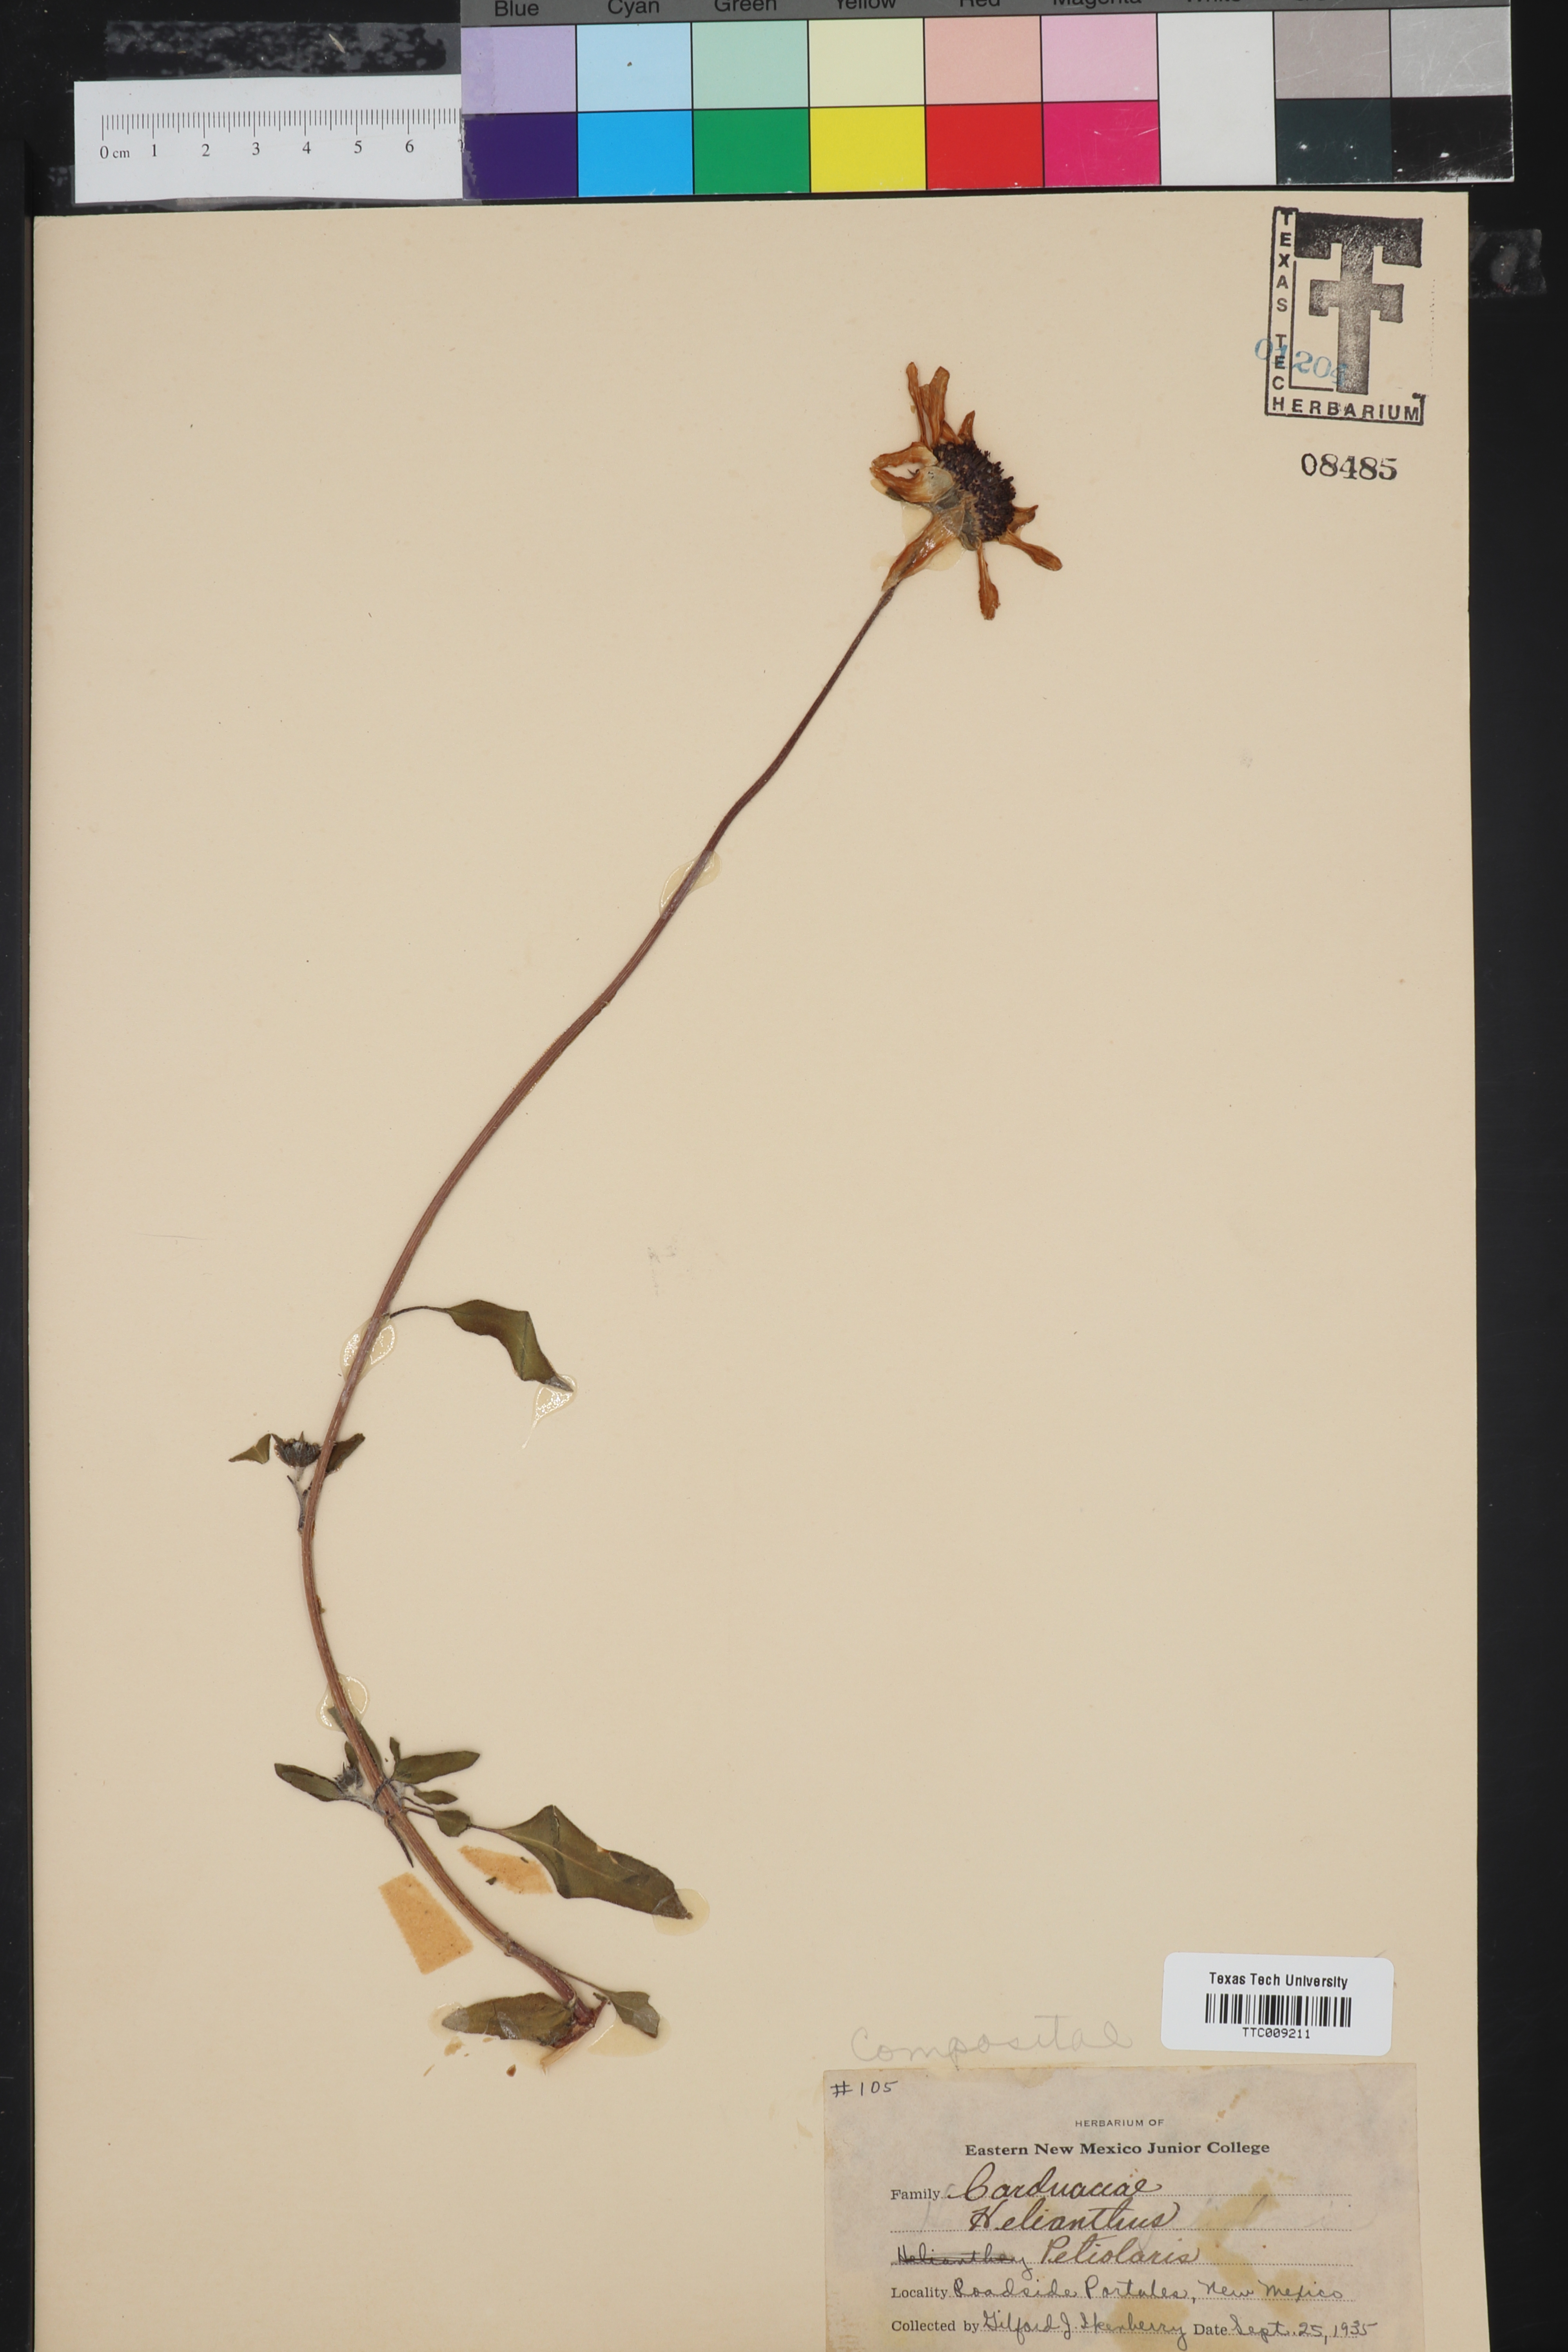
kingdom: Plantae
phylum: Tracheophyta
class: Magnoliopsida
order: Asterales
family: Asteraceae
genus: Helianthus
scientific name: Helianthus petiolaris
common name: Lesser sunflower
